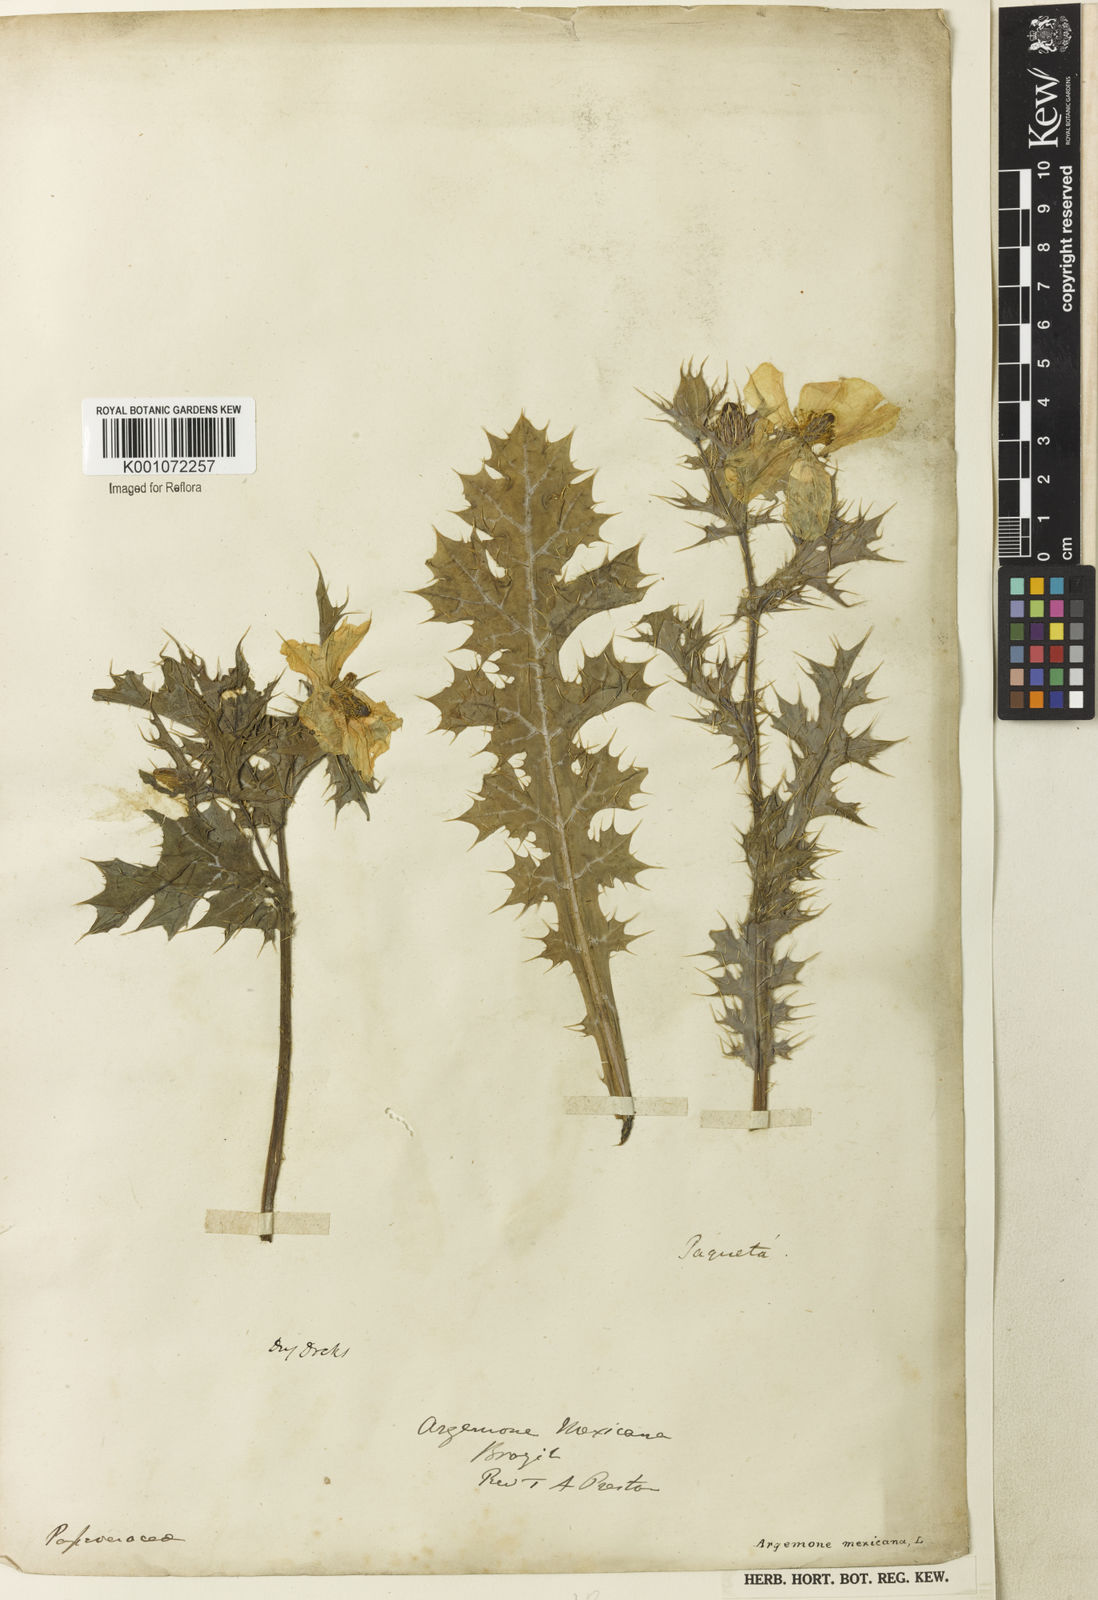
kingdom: Plantae
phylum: Tracheophyta
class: Magnoliopsida
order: Ranunculales
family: Papaveraceae
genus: Argemone
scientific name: Argemone mexicana
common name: Mexican poppy
